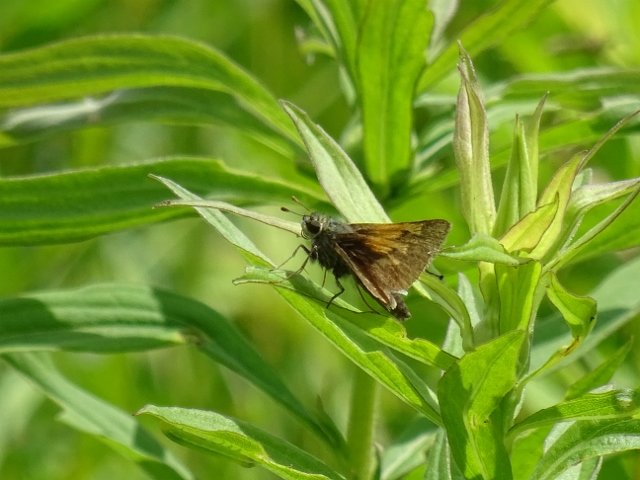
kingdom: Animalia
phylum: Arthropoda
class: Insecta
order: Lepidoptera
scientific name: Lepidoptera
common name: Butterflies
